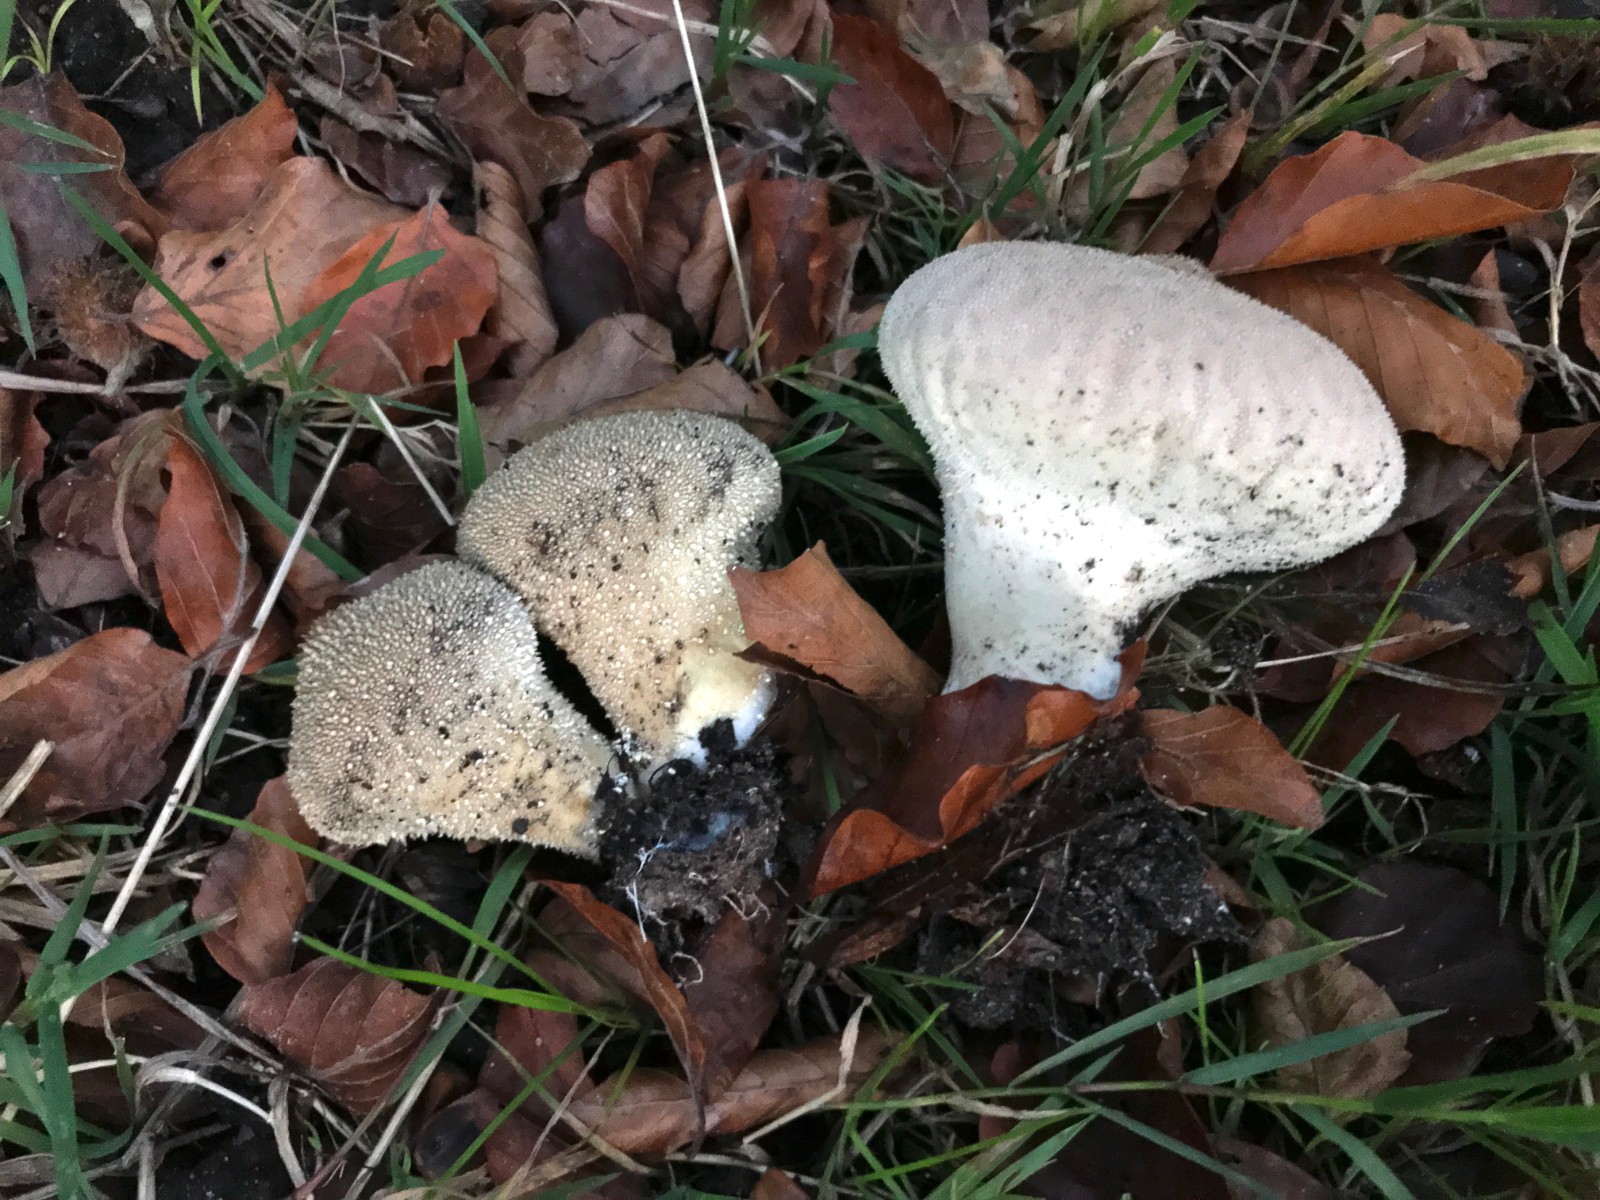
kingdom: Fungi
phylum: Basidiomycota
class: Agaricomycetes
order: Agaricales
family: Lycoperdaceae
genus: Lycoperdon
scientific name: Lycoperdon perlatum
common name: krystal-støvbold
